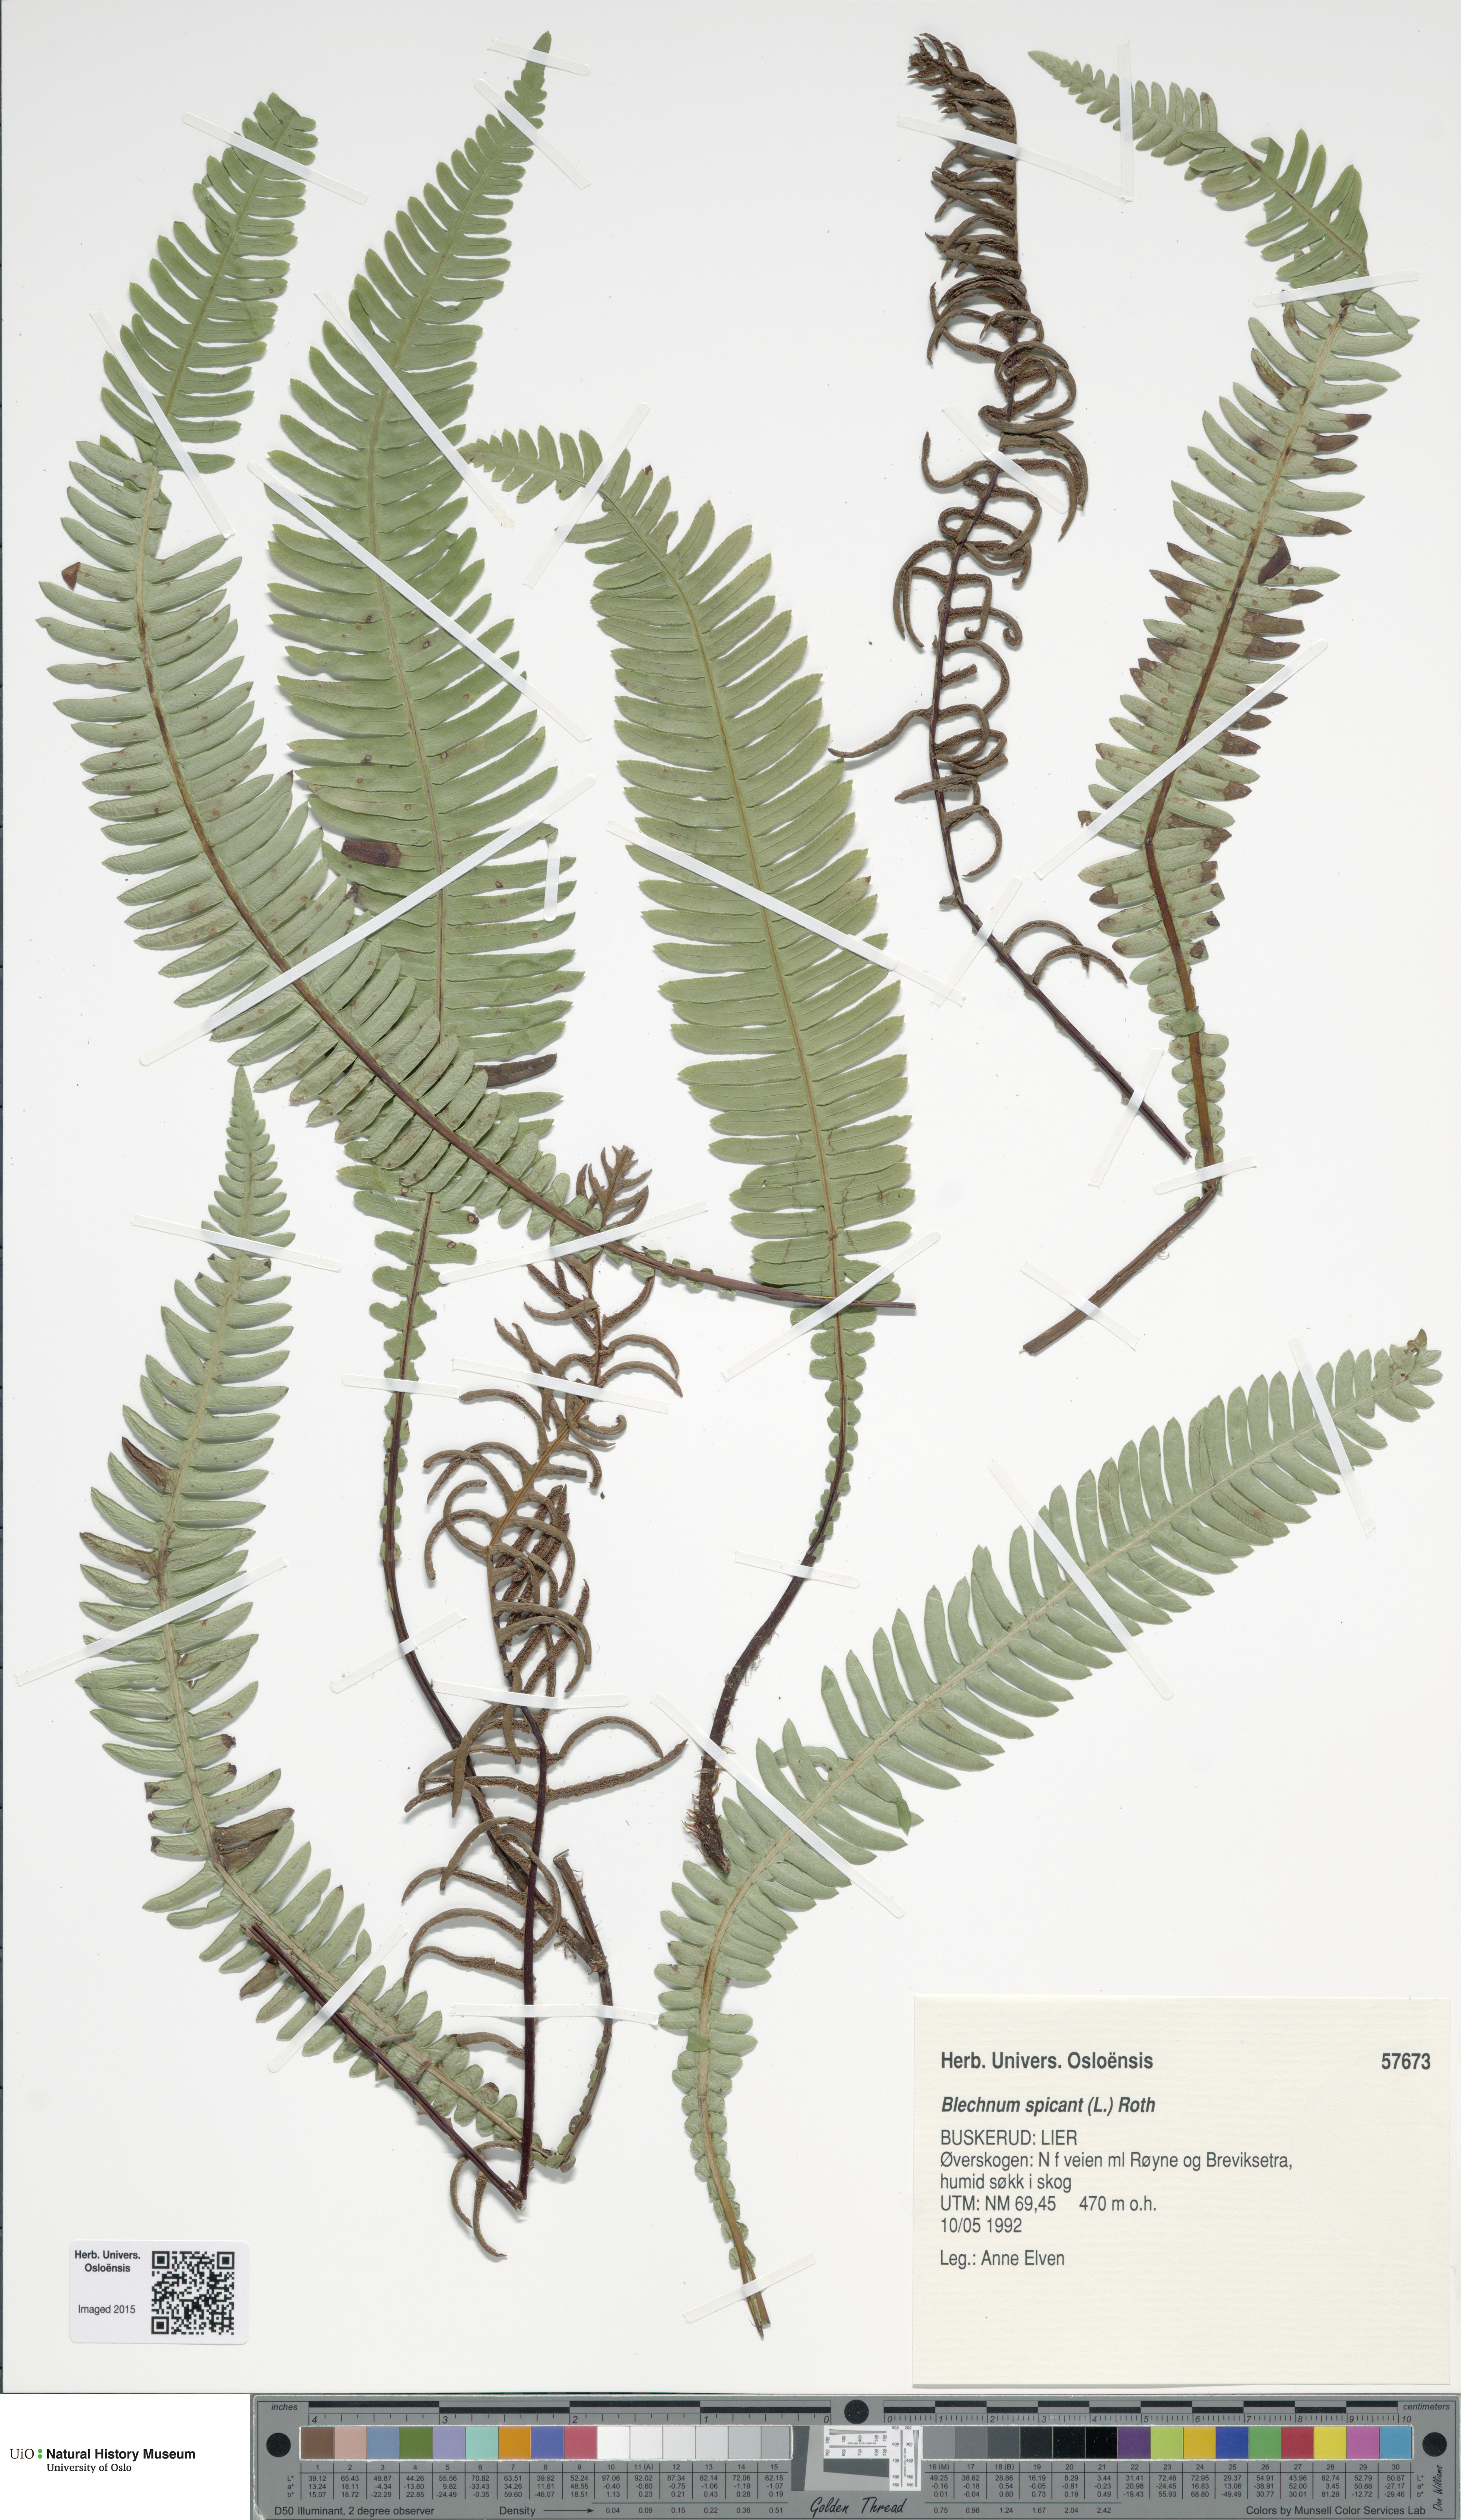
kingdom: Plantae
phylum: Tracheophyta
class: Polypodiopsida
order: Polypodiales
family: Blechnaceae
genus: Struthiopteris
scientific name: Struthiopteris spicant
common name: Deer fern
